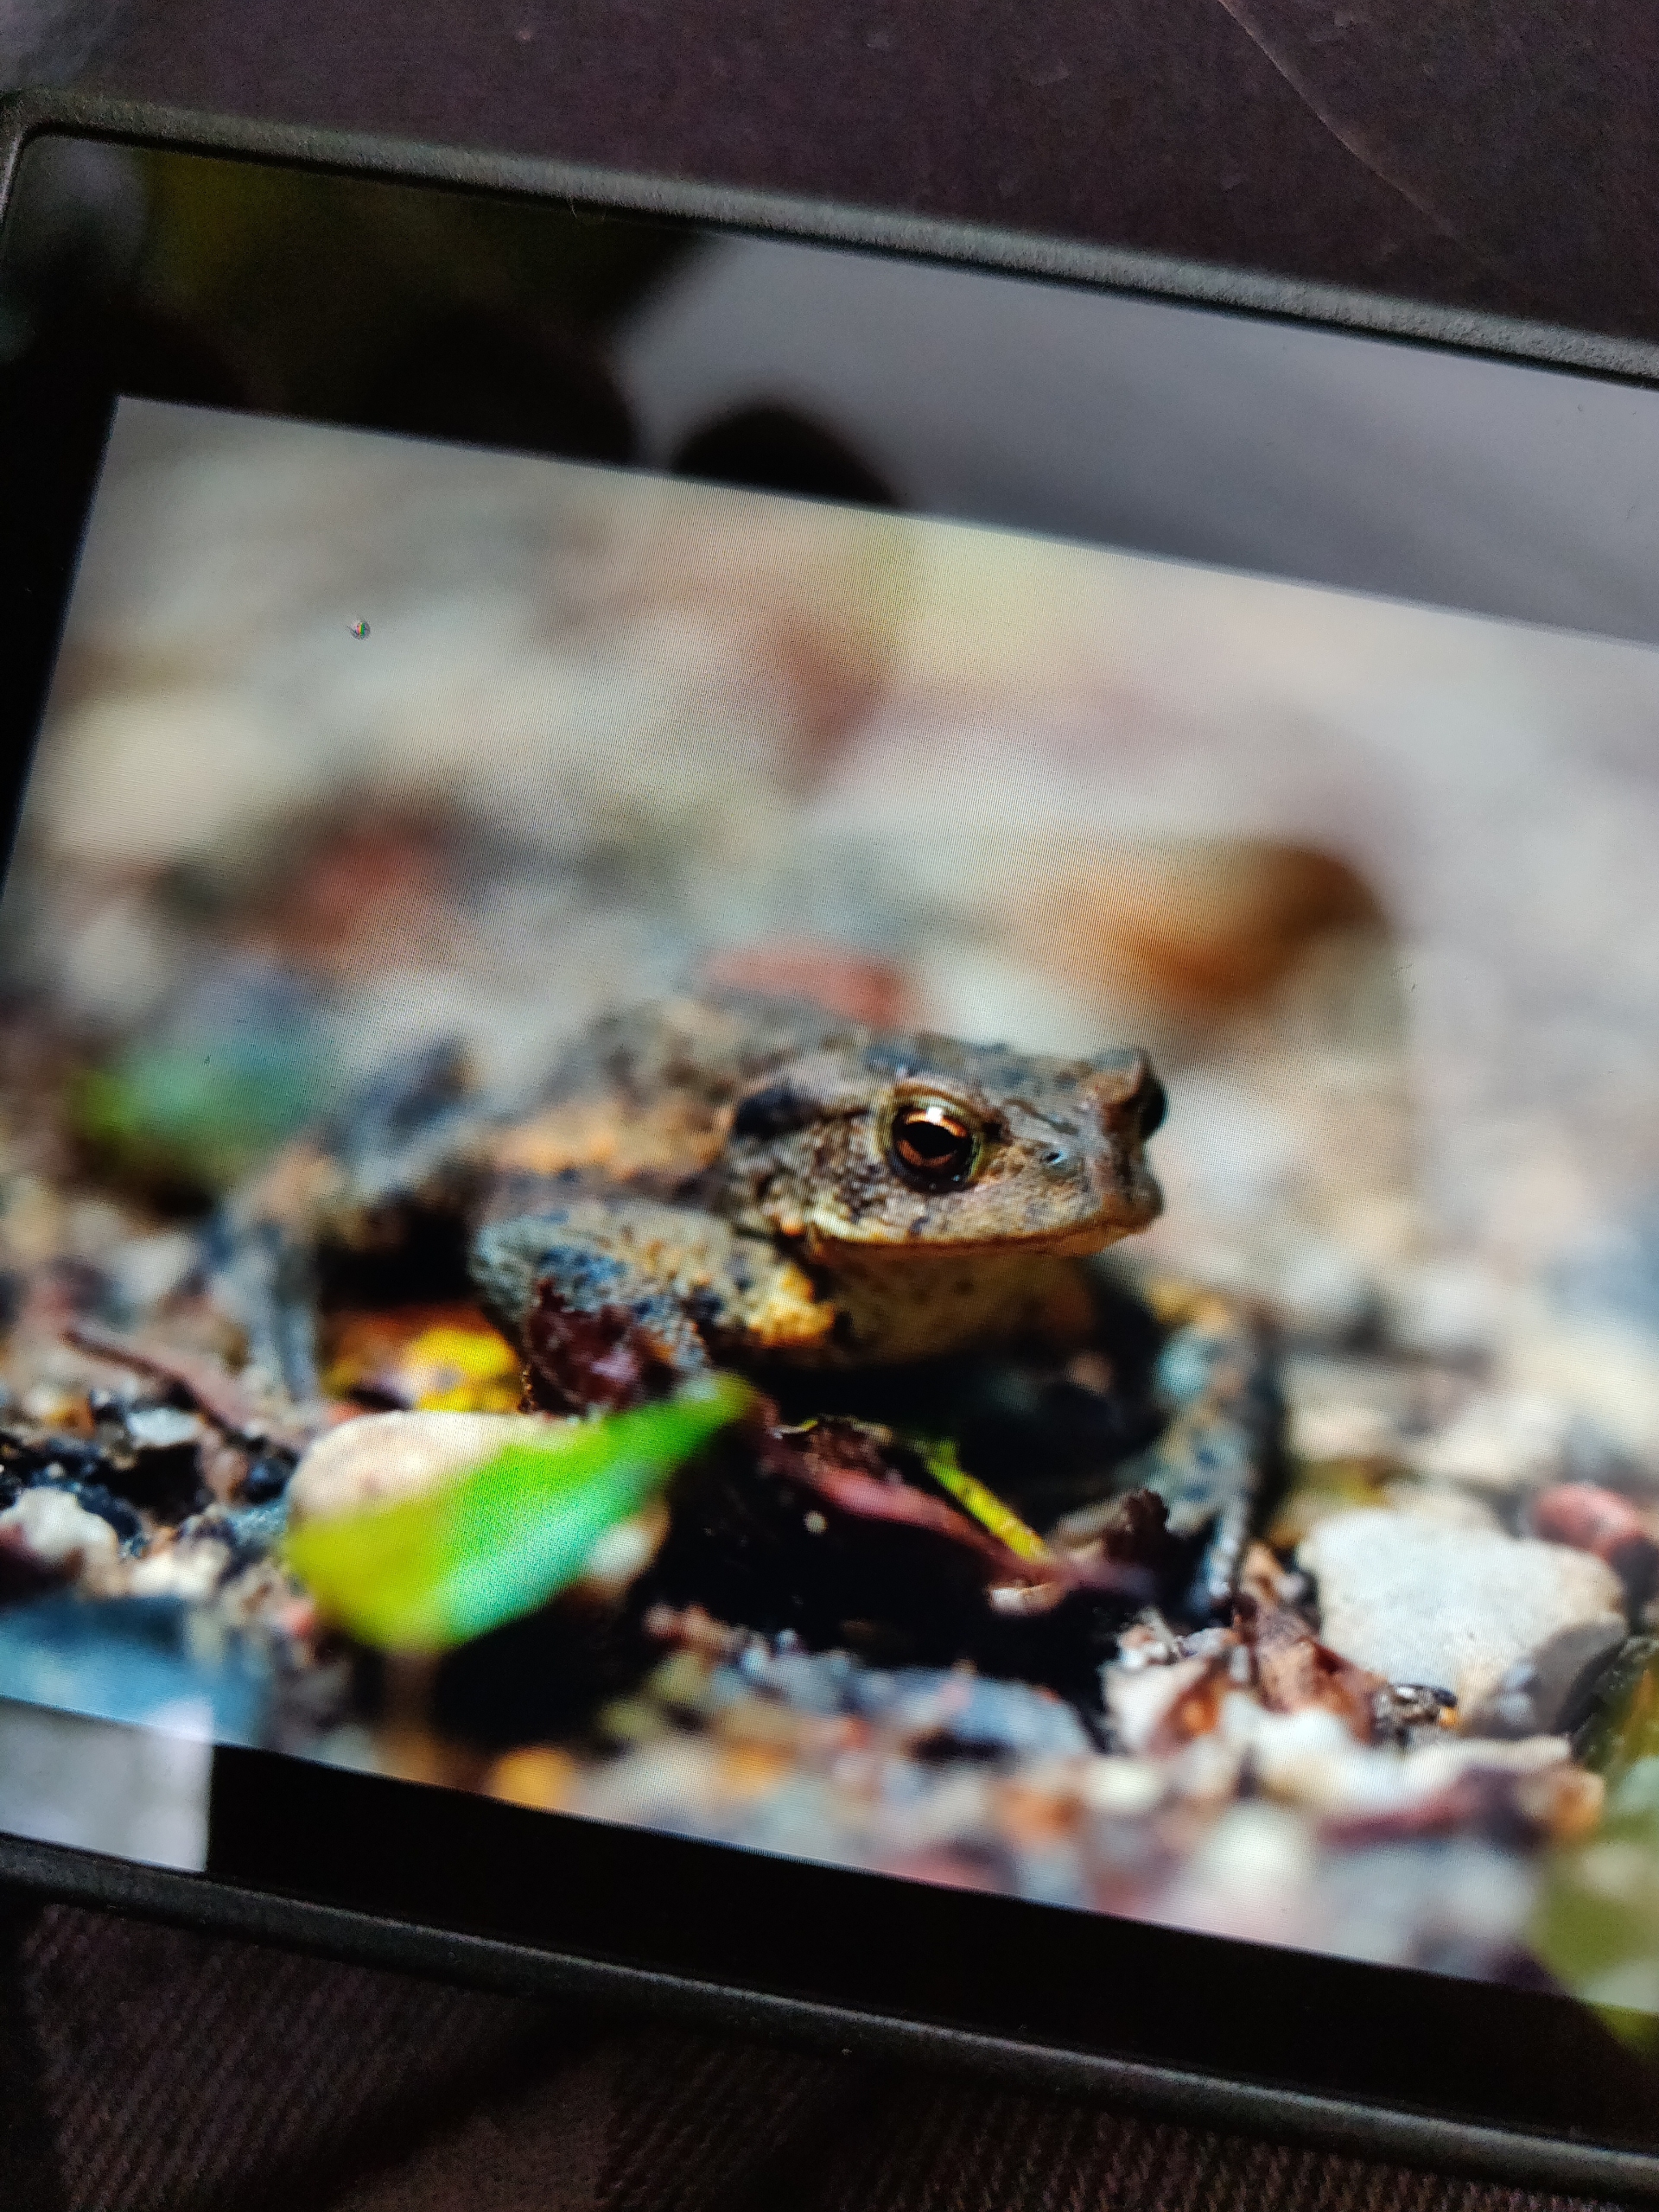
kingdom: Animalia
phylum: Chordata
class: Amphibia
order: Anura
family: Bufonidae
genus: Bufo
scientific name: Bufo bufo
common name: Skrubtudse
